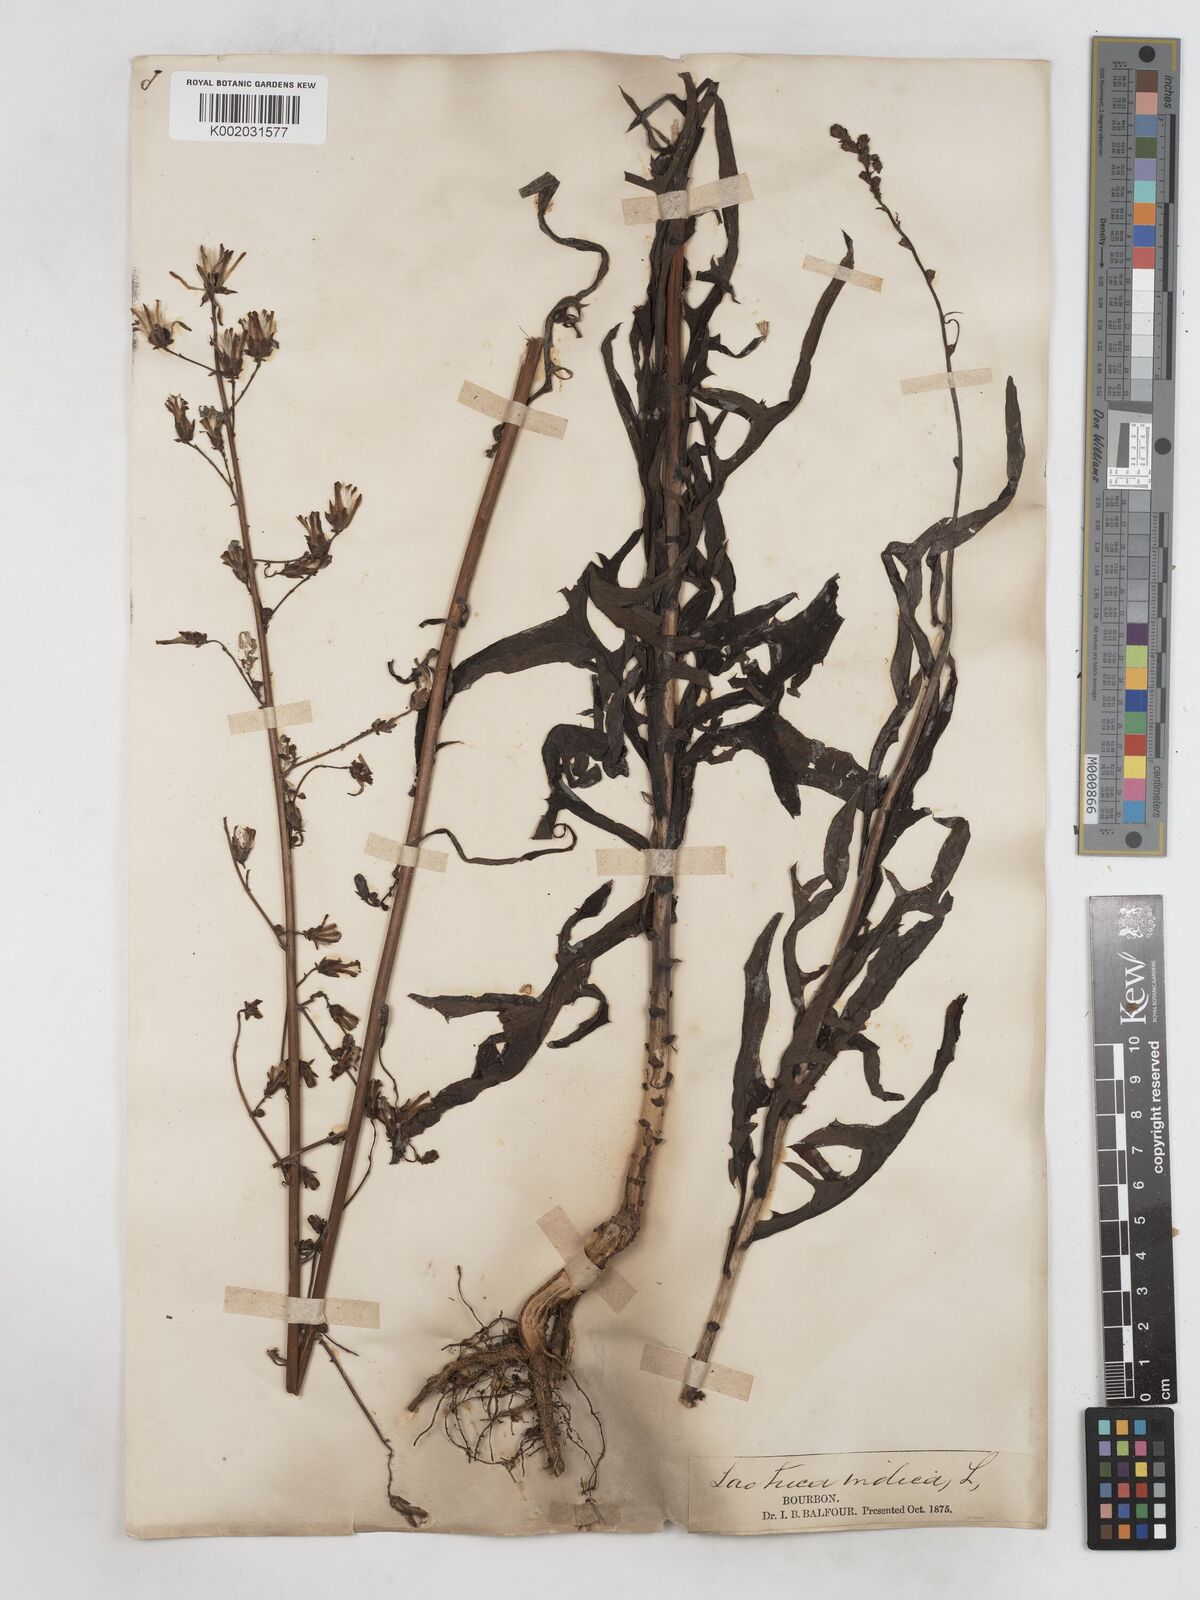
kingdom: Plantae
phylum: Tracheophyta
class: Magnoliopsida
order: Asterales
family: Asteraceae
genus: Lactuca
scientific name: Lactuca
